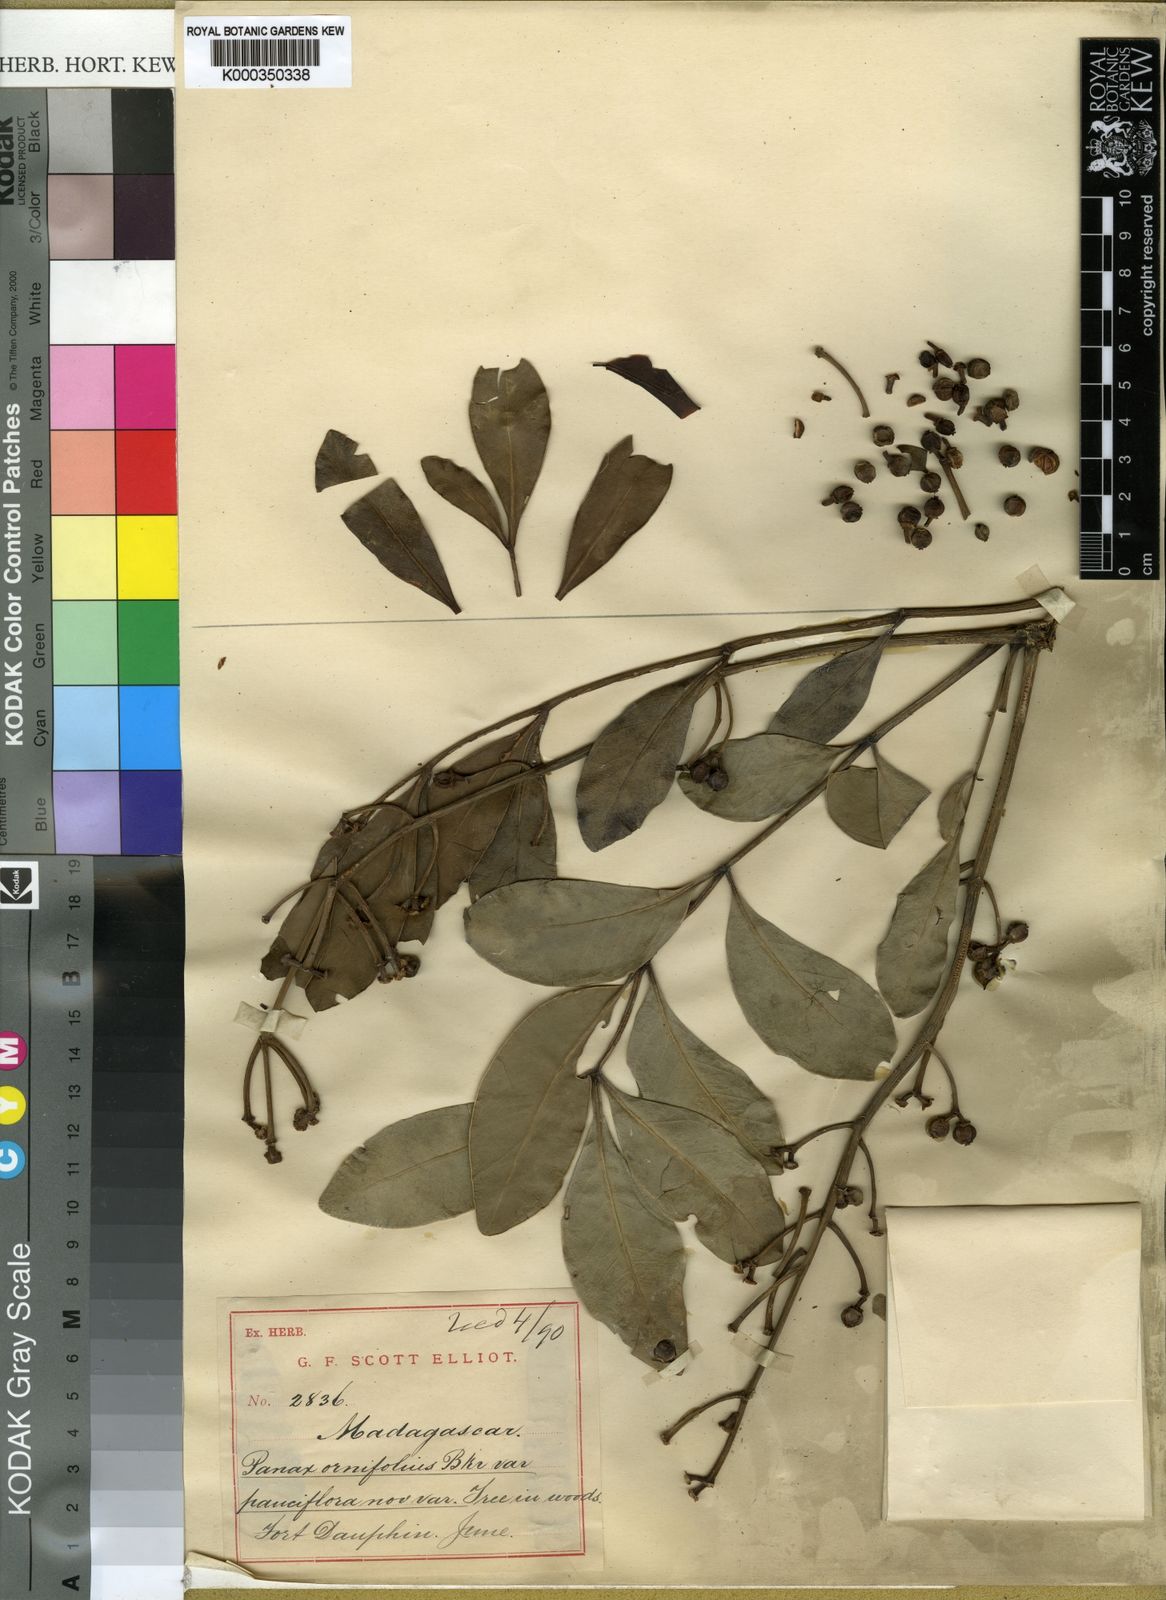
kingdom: Plantae
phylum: Tracheophyta
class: Magnoliopsida
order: Apiales
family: Araliaceae
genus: Polyscias
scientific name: Polyscias ornifolia
